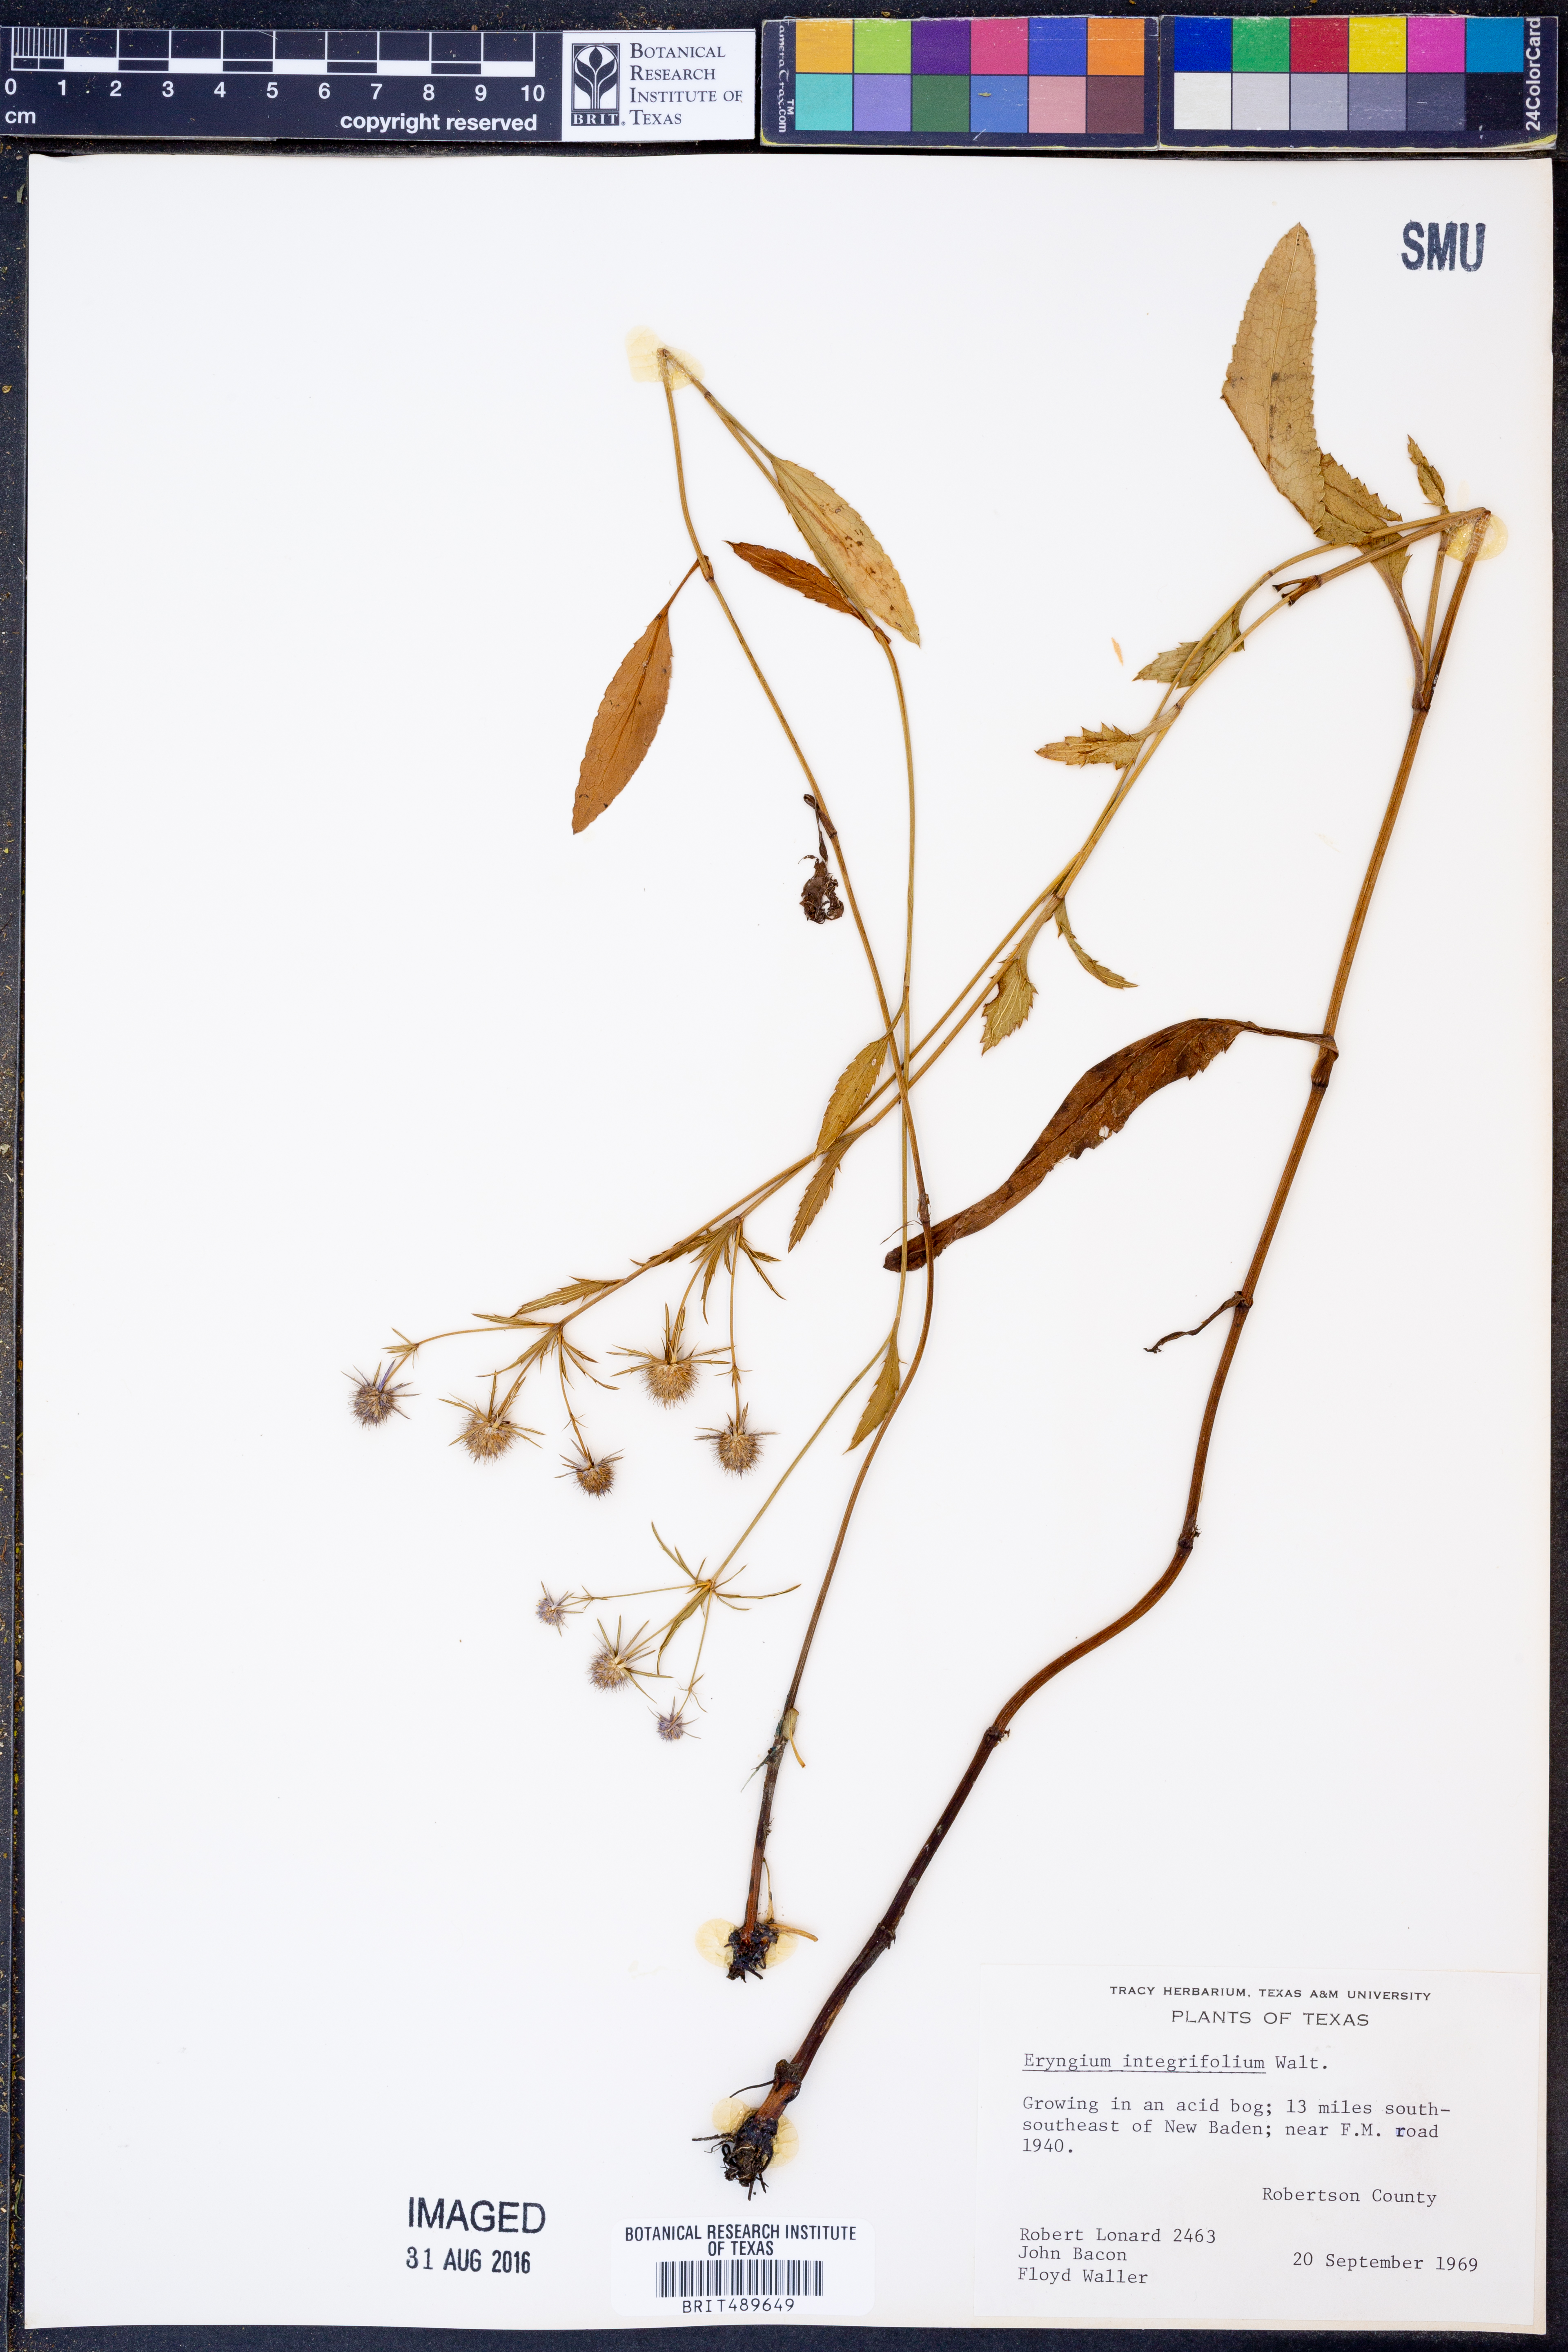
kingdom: Plantae
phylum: Tracheophyta
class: Magnoliopsida
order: Apiales
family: Apiaceae
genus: Eryngium
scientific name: Eryngium integrifolium
